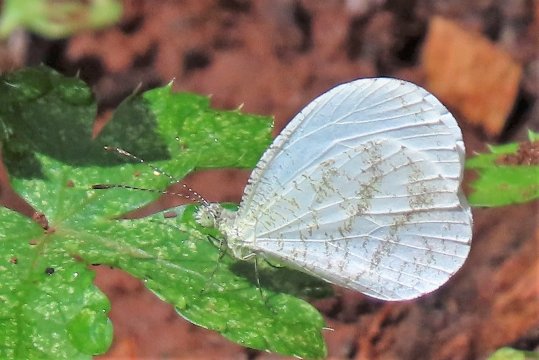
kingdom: Animalia
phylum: Arthropoda
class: Insecta
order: Lepidoptera
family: Pieridae
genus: Leptosia
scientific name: Leptosia alcesta
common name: African Wood White
